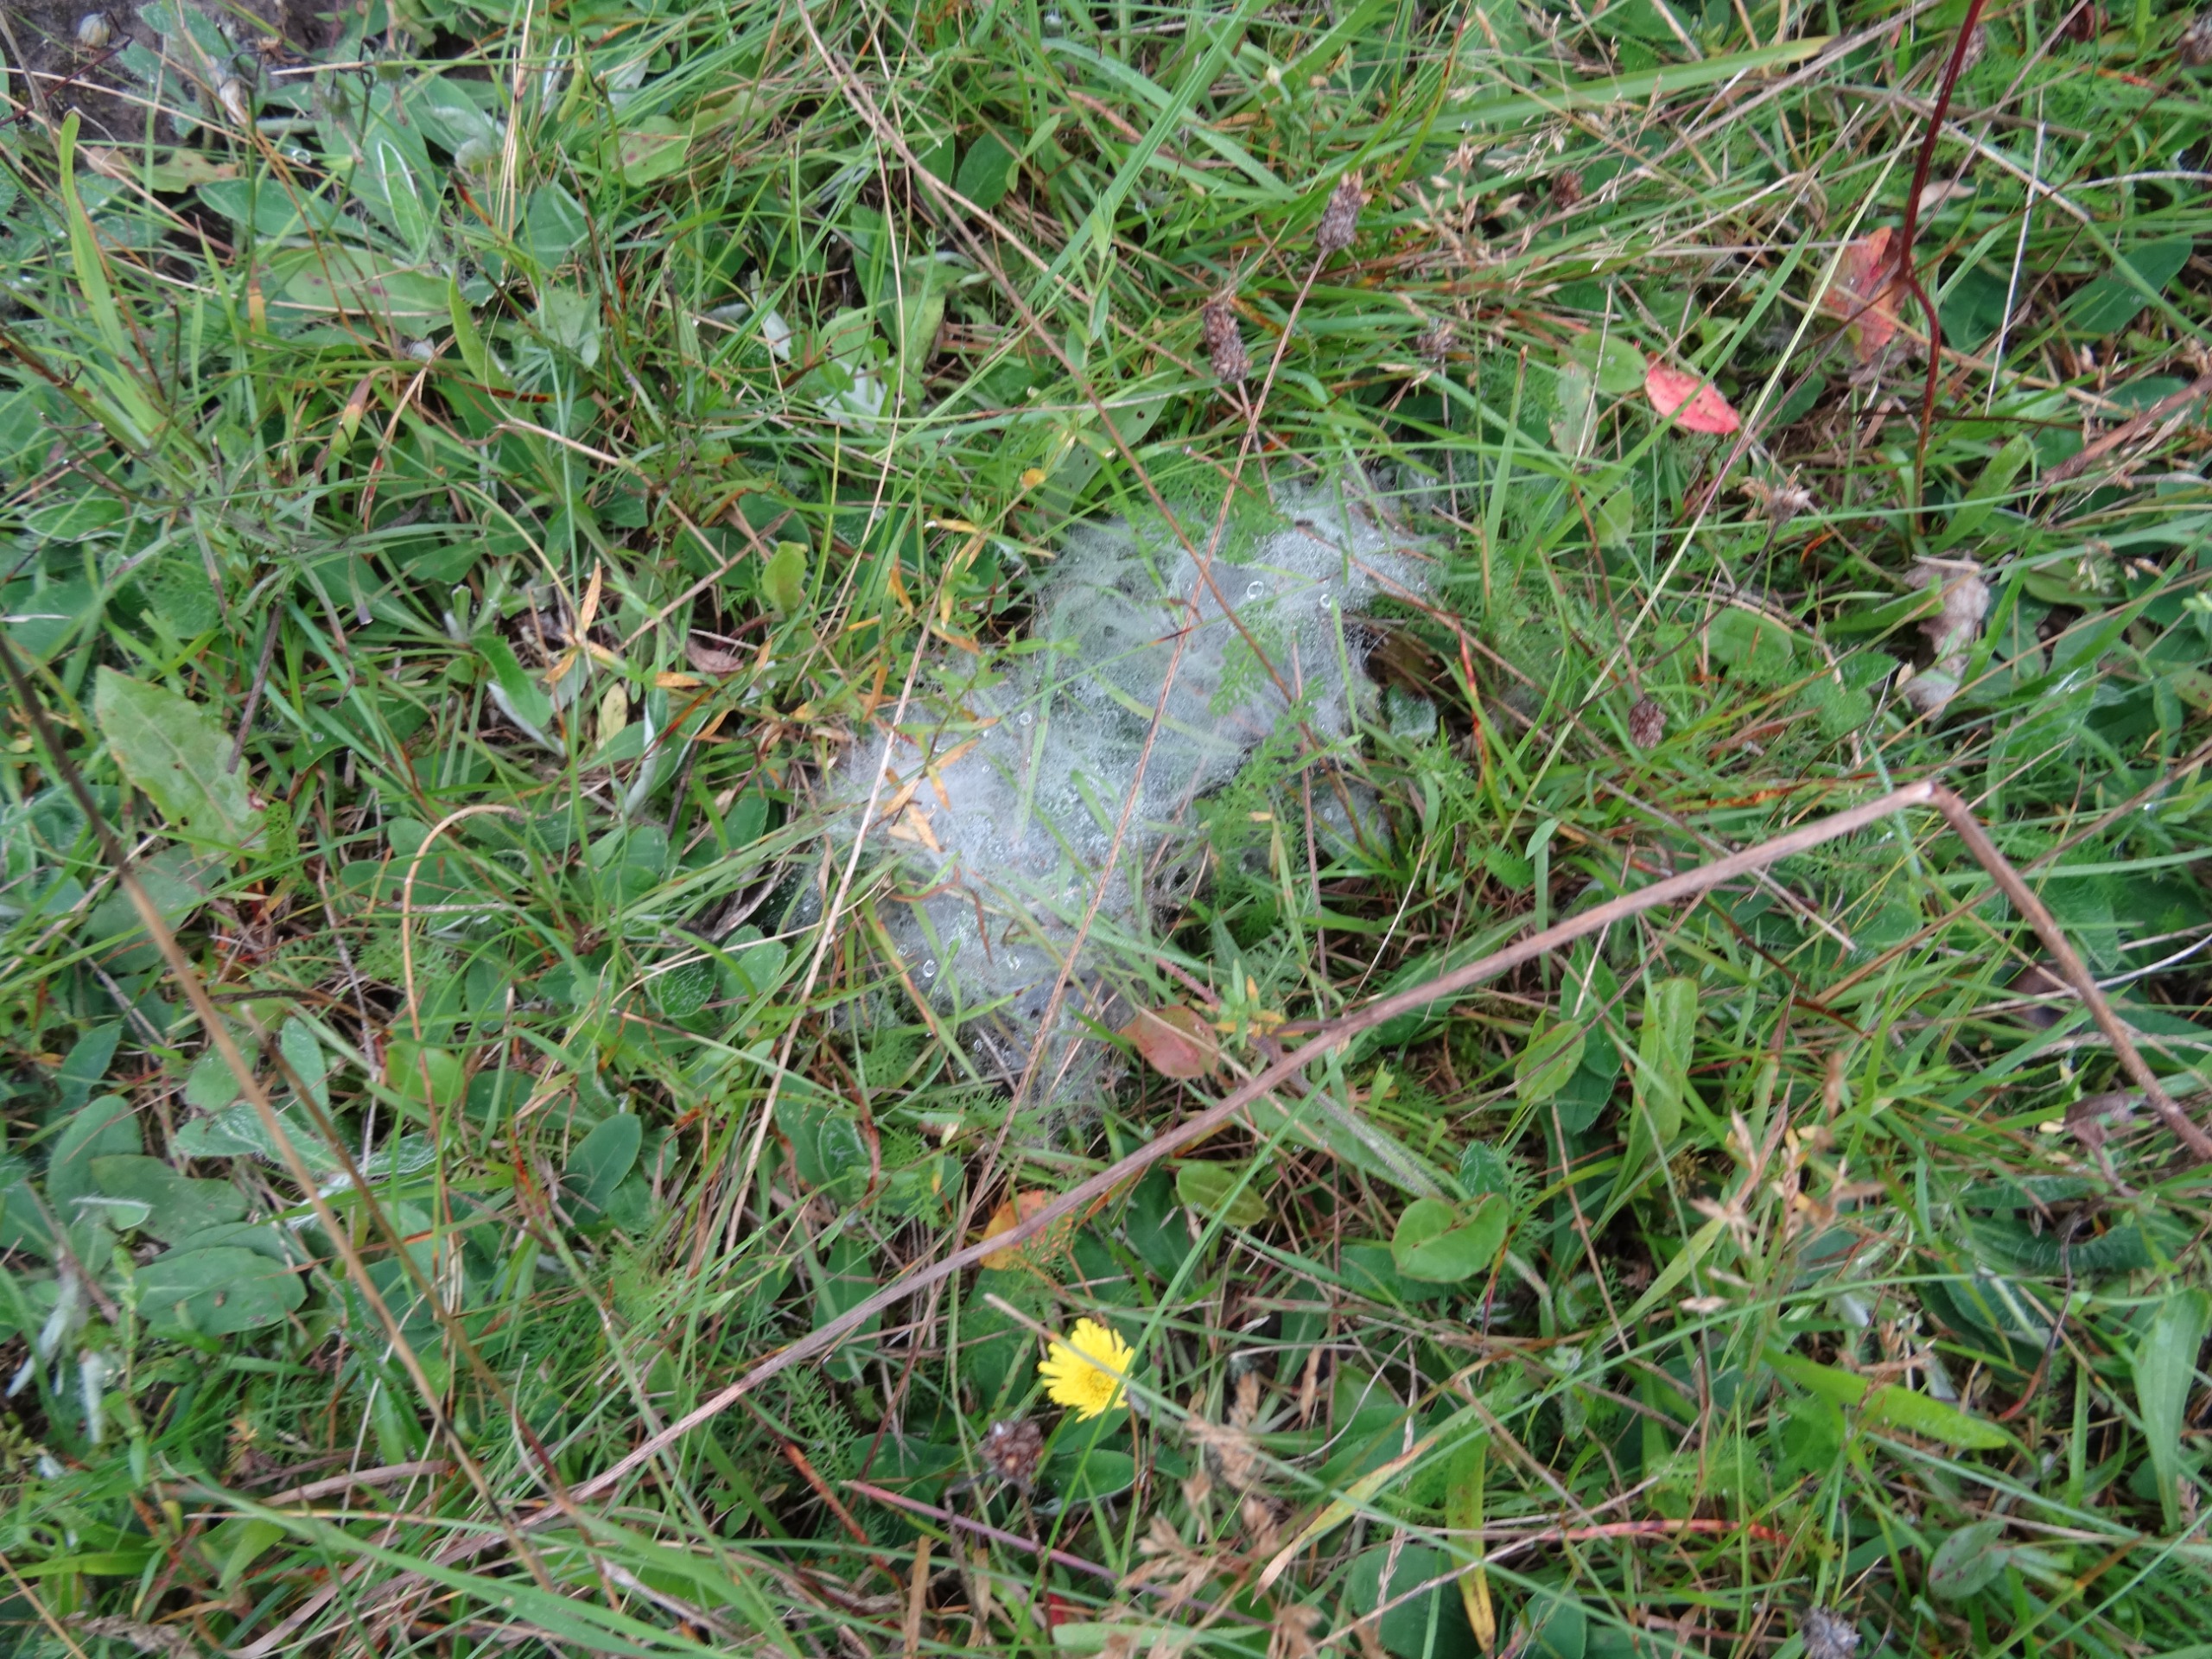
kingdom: Animalia
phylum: Arthropoda
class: Insecta
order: Lepidoptera
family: Nymphalidae
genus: Melitaea
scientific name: Melitaea cinxia
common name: Okkergul pletvinge
